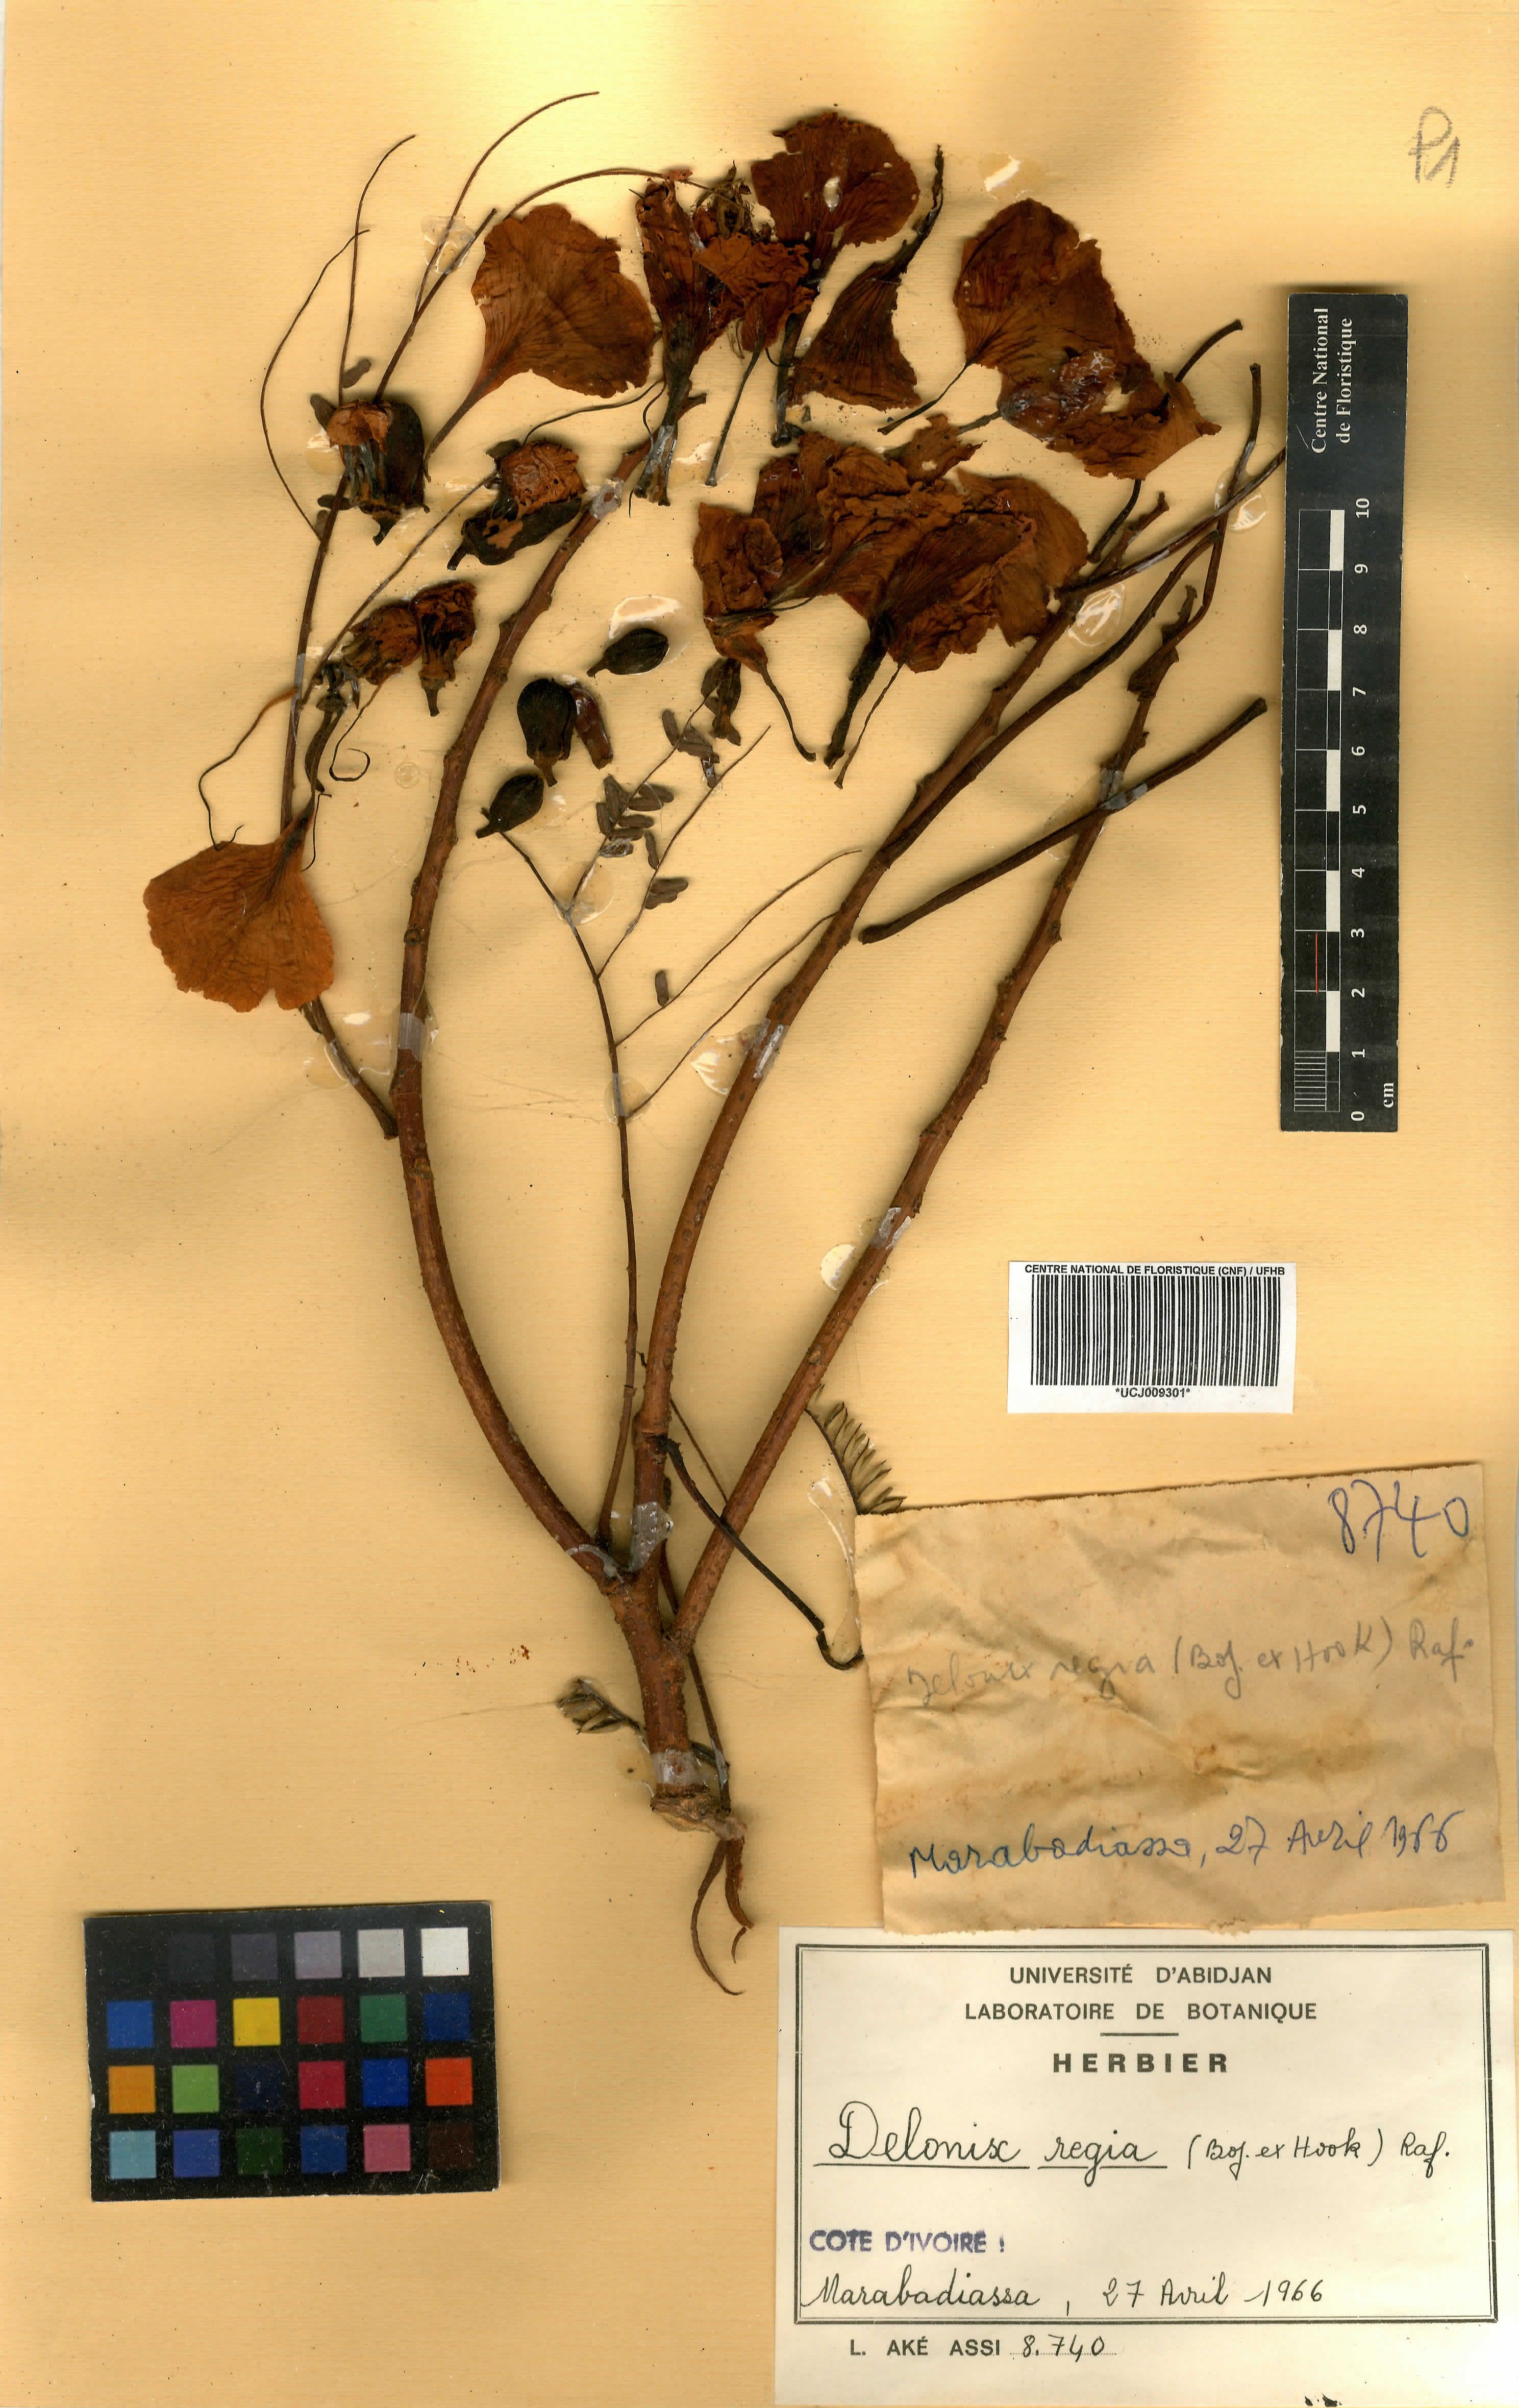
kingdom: Plantae
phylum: Tracheophyta
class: Magnoliopsida
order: Fabales
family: Fabaceae
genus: Delonix
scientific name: Delonix regia
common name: Royal poinciana
